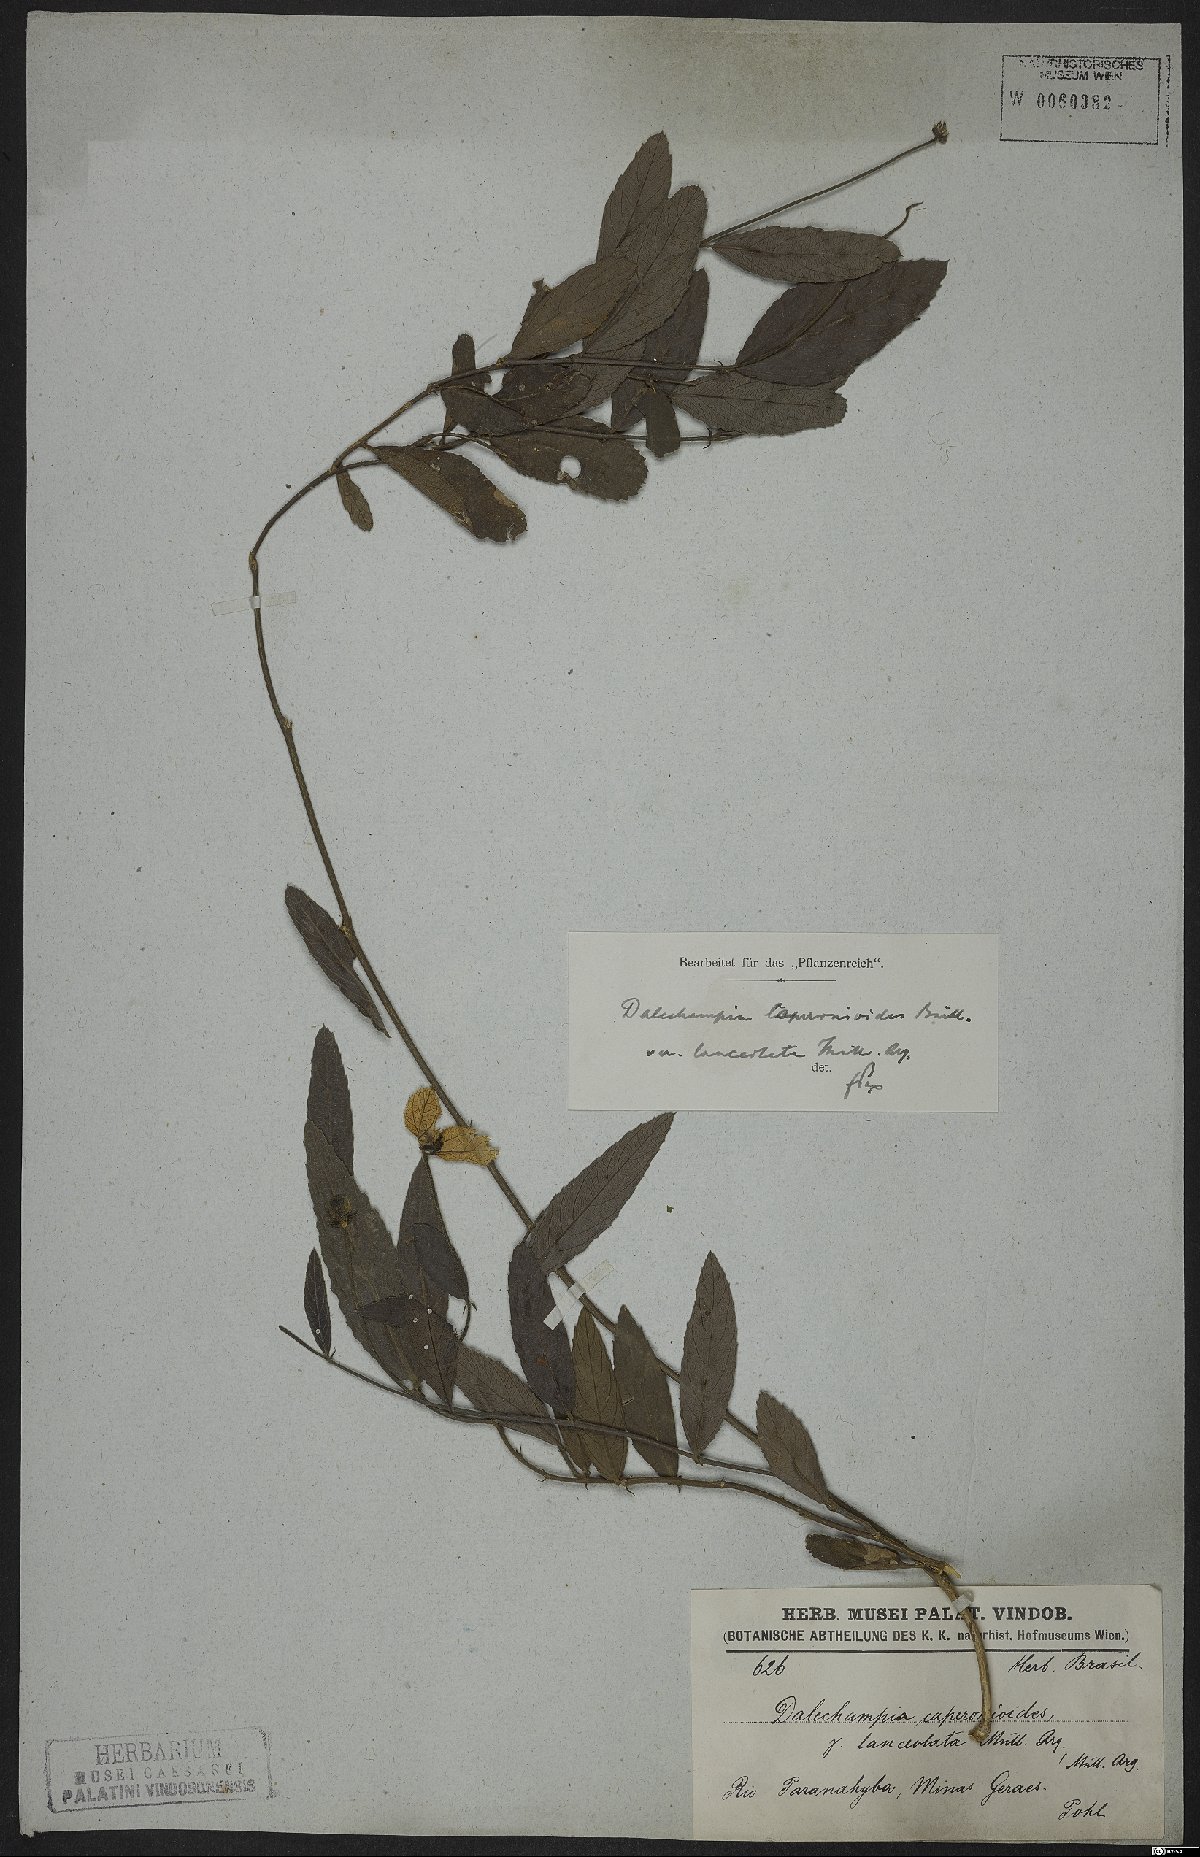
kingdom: Plantae
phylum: Tracheophyta
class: Magnoliopsida
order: Malpighiales
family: Euphorbiaceae
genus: Dalechampia
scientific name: Dalechampia caperonioides
